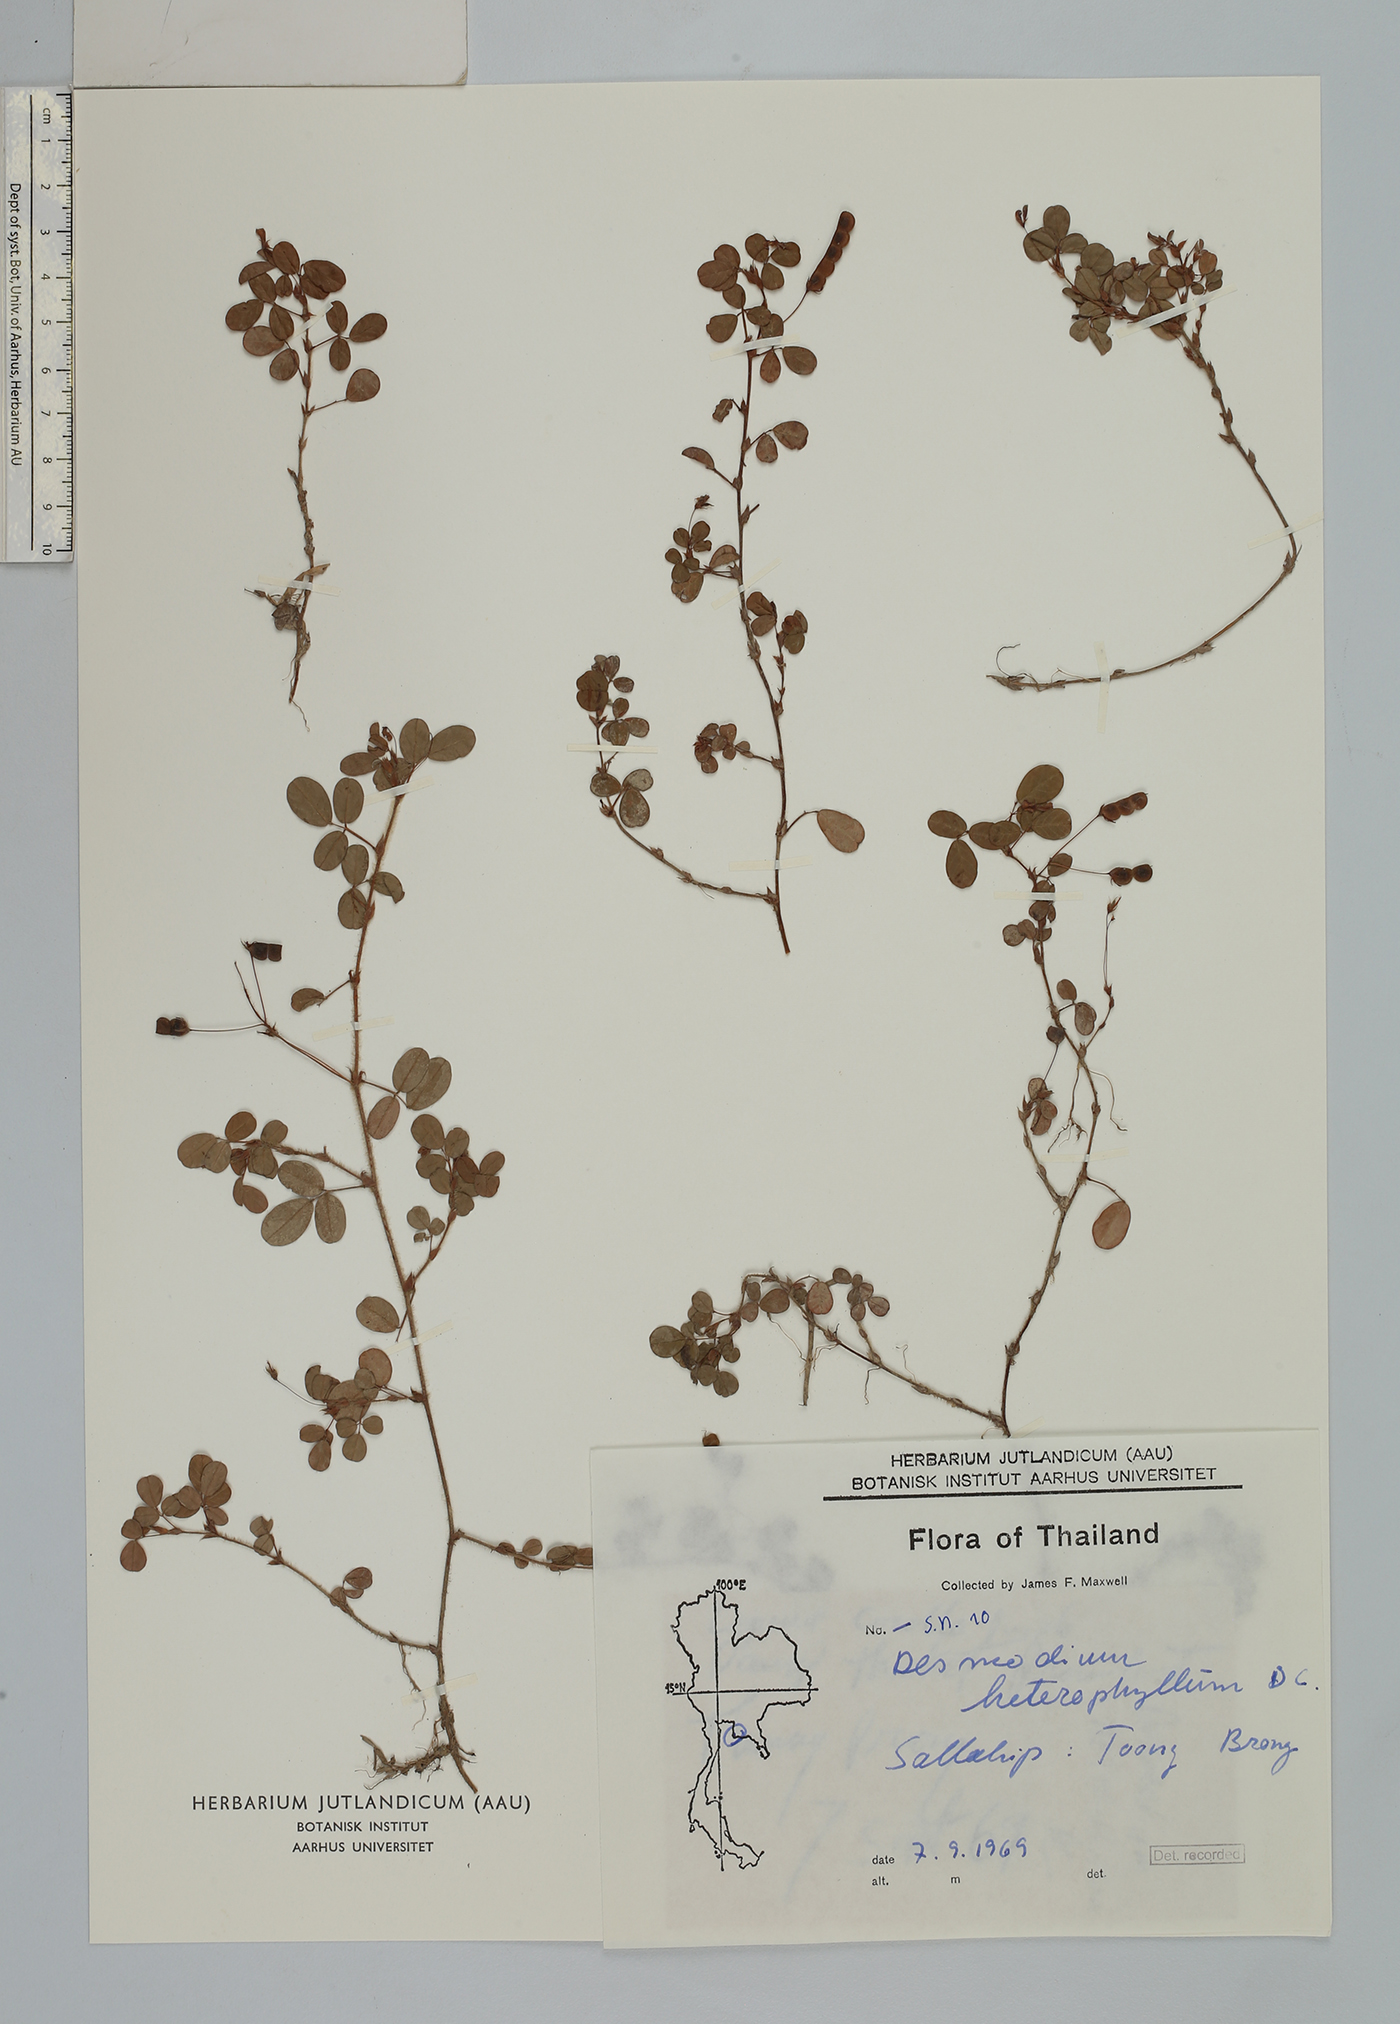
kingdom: Plantae
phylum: Tracheophyta
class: Magnoliopsida
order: Fabales
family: Fabaceae
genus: Grona
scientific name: Grona heterophylla
